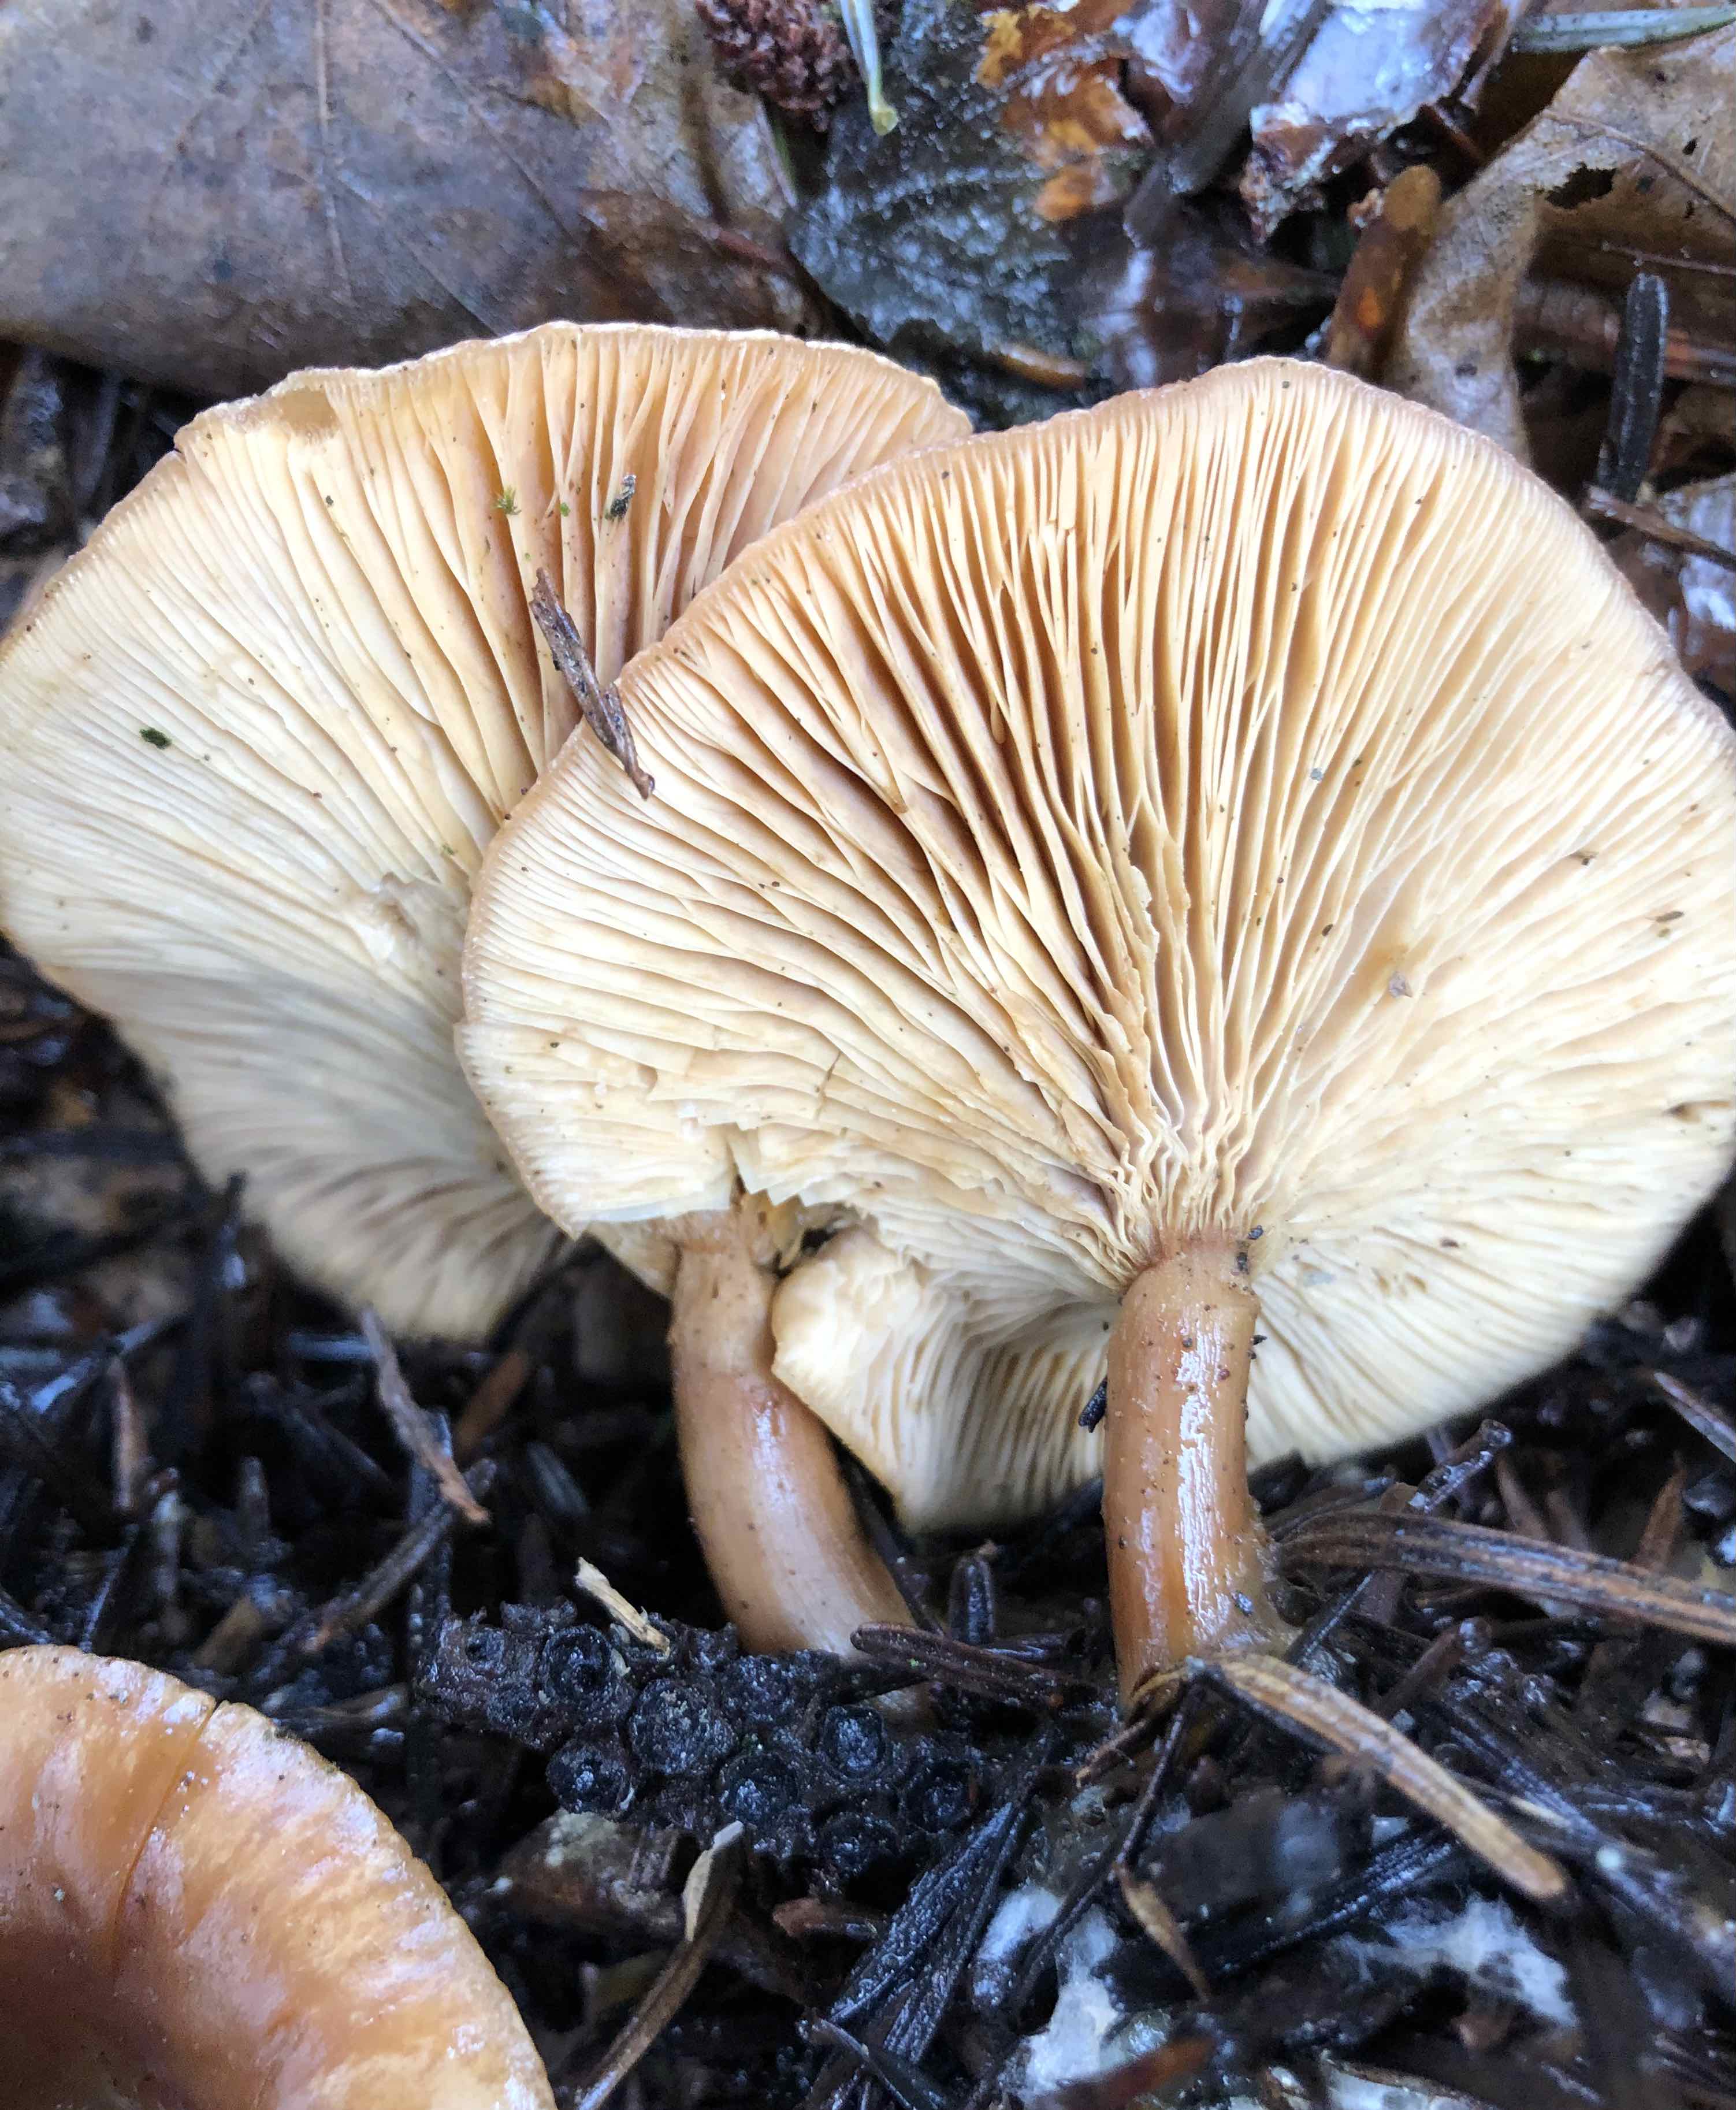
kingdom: Fungi
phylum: Basidiomycota
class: Agaricomycetes
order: Agaricales
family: Tricholomataceae
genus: Paralepista
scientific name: Paralepista flaccida
